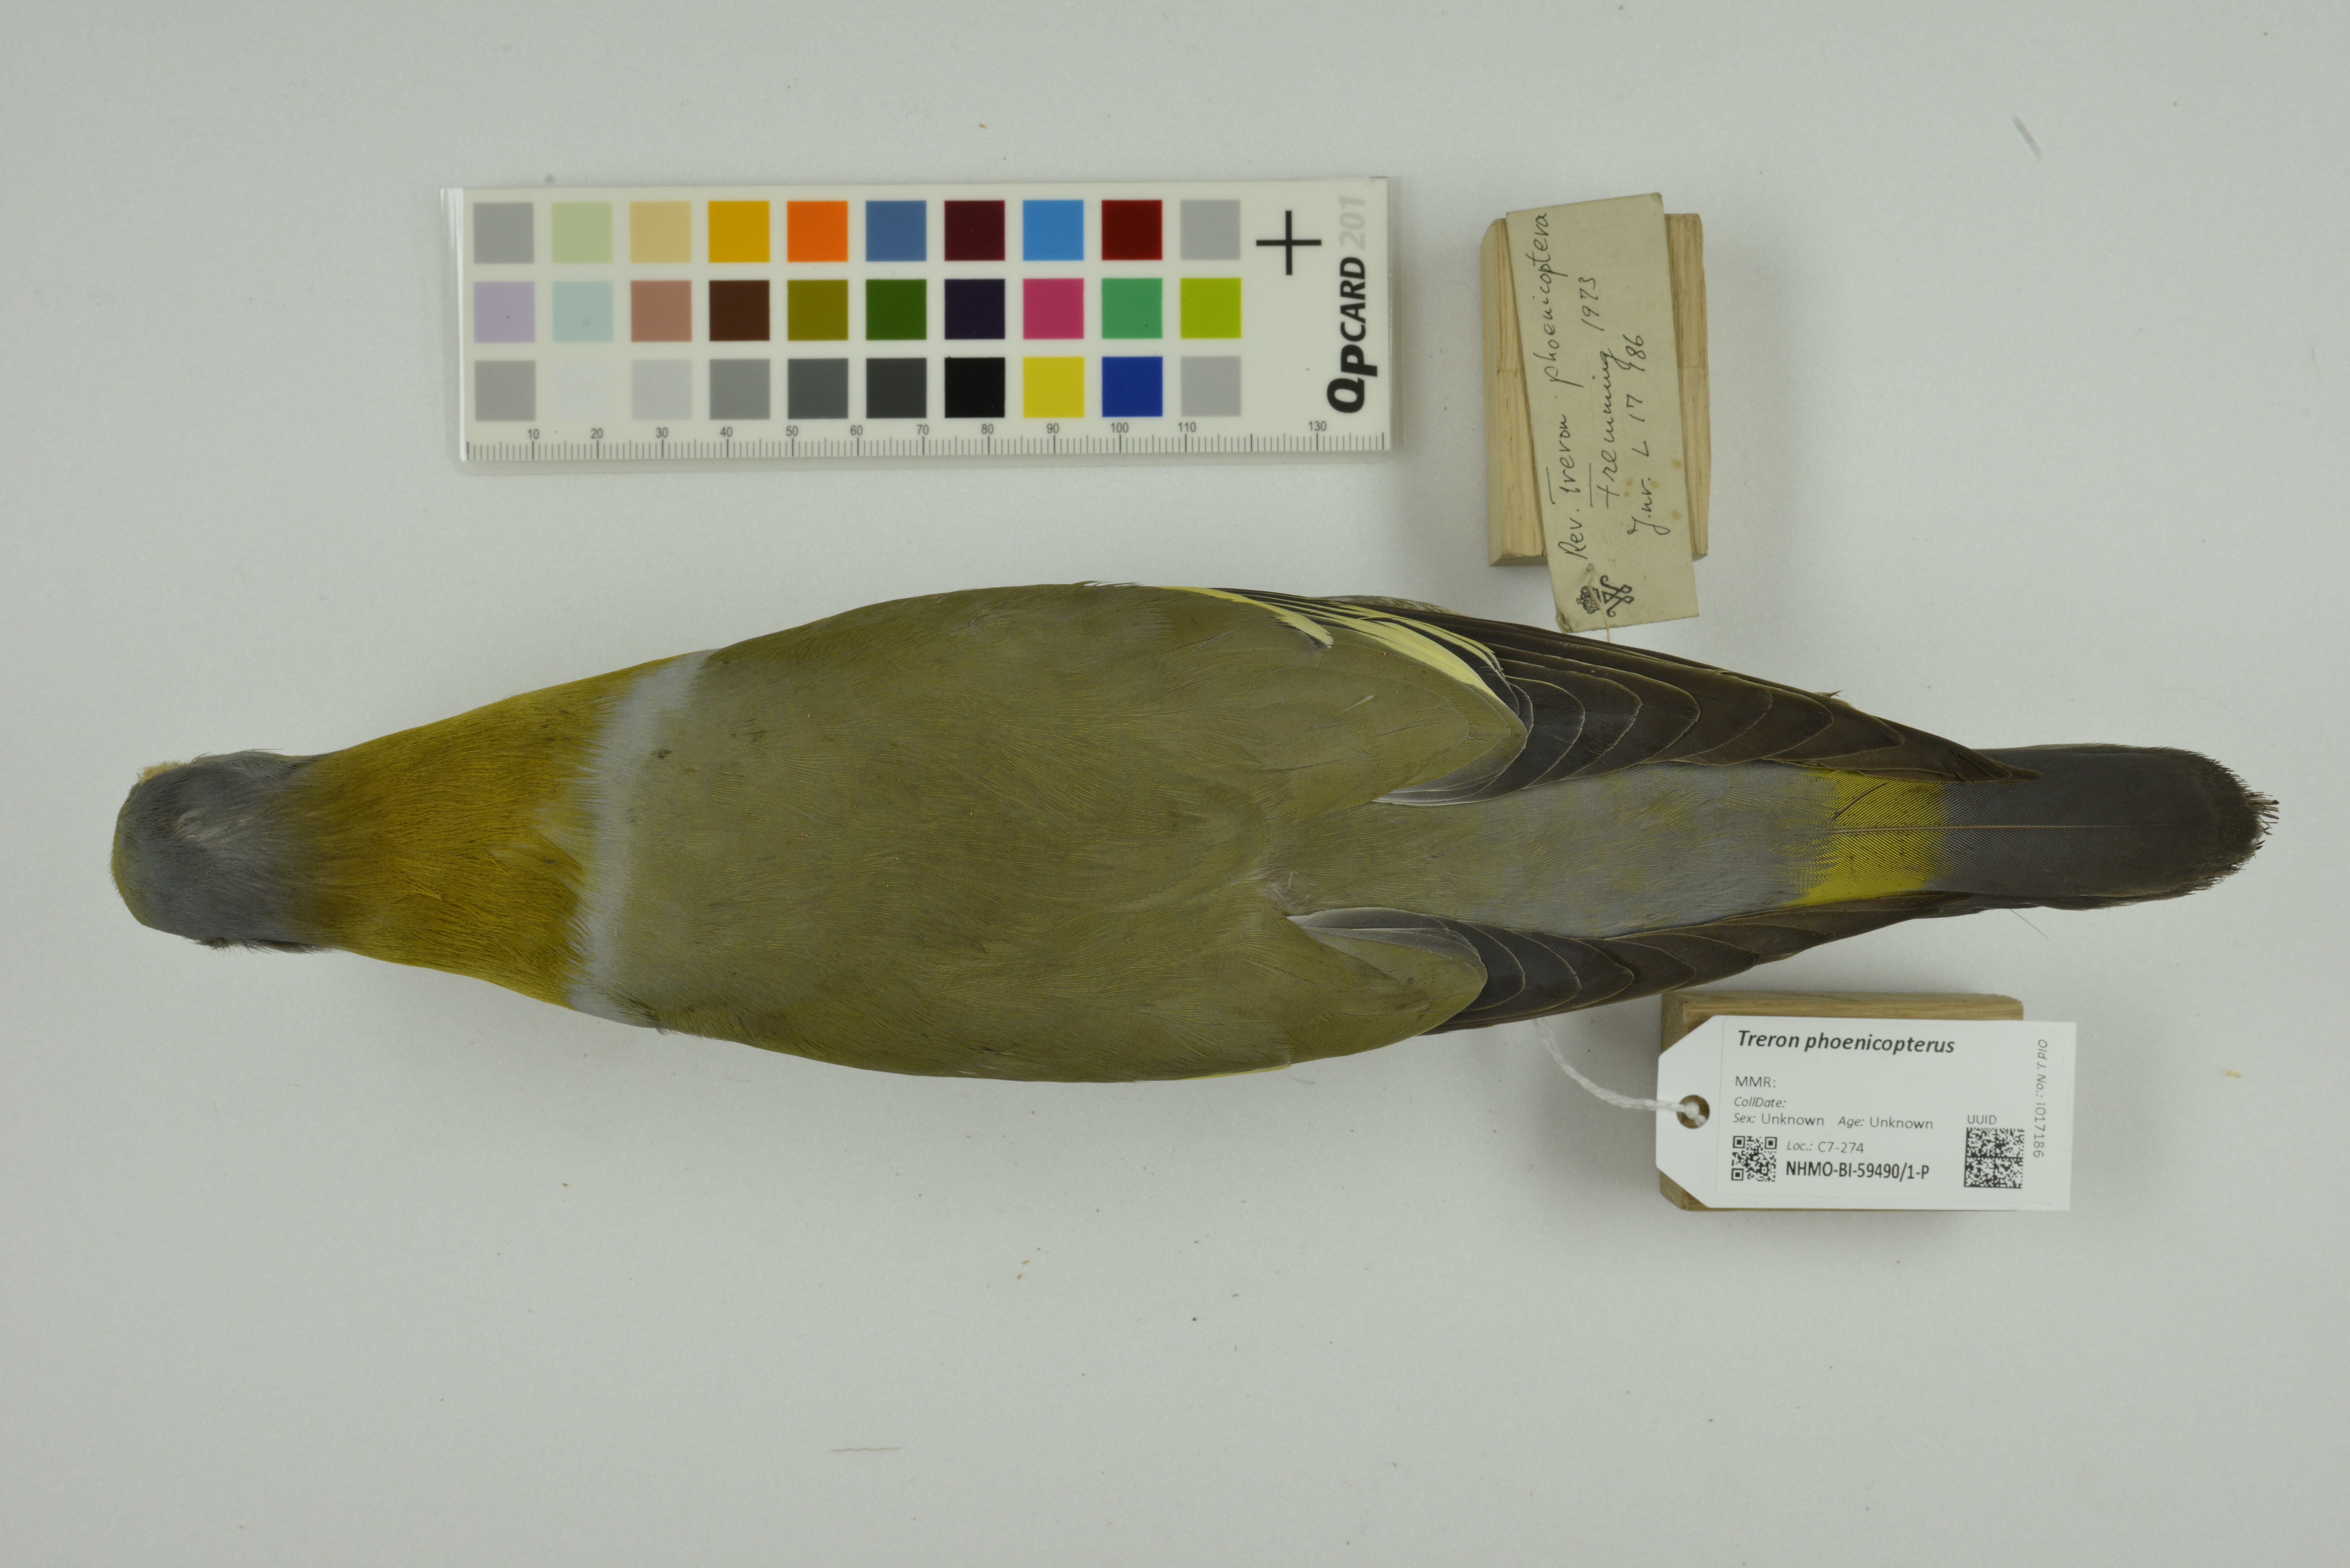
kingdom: Animalia
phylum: Chordata
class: Aves
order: Columbiformes
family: Columbidae
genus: Treron
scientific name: Treron phoenicopterus
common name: Yellow-footed green pigeon
